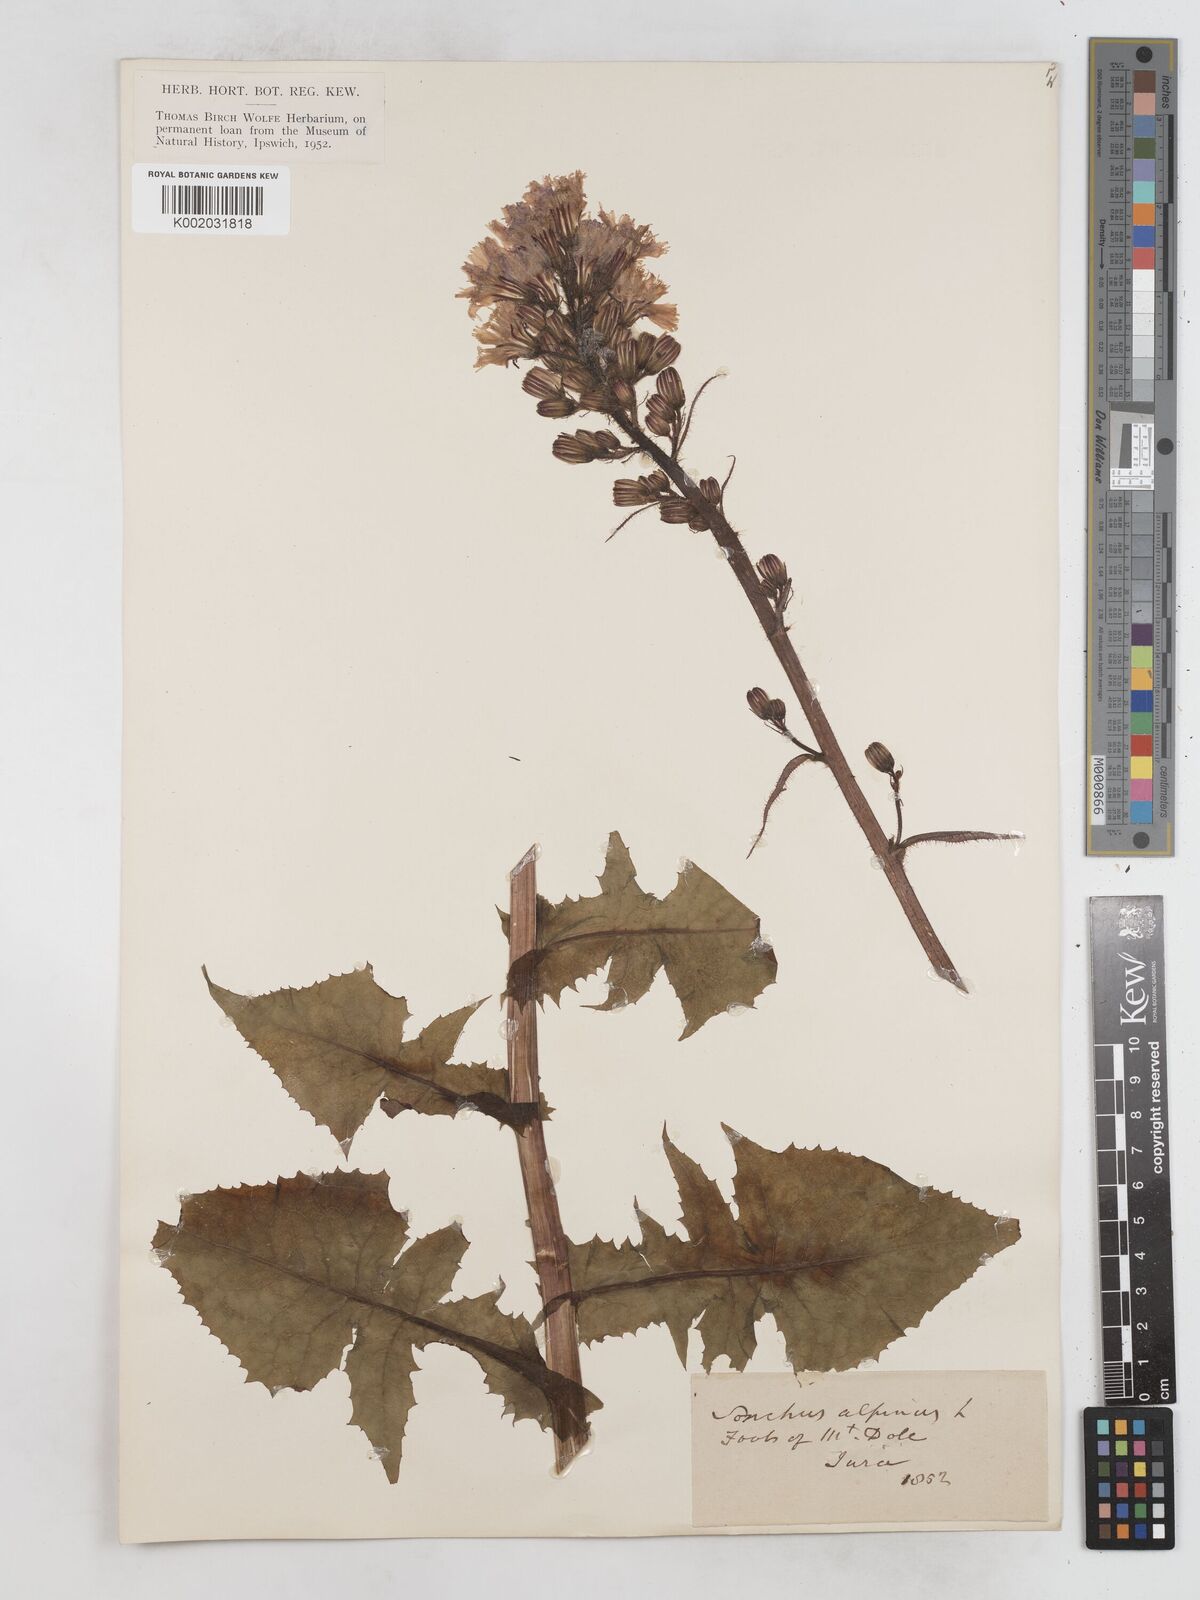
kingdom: Plantae
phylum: Tracheophyta
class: Magnoliopsida
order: Asterales
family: Asteraceae
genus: Cicerbita
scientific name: Cicerbita alpina
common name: Alpine blue-sow-thistle
